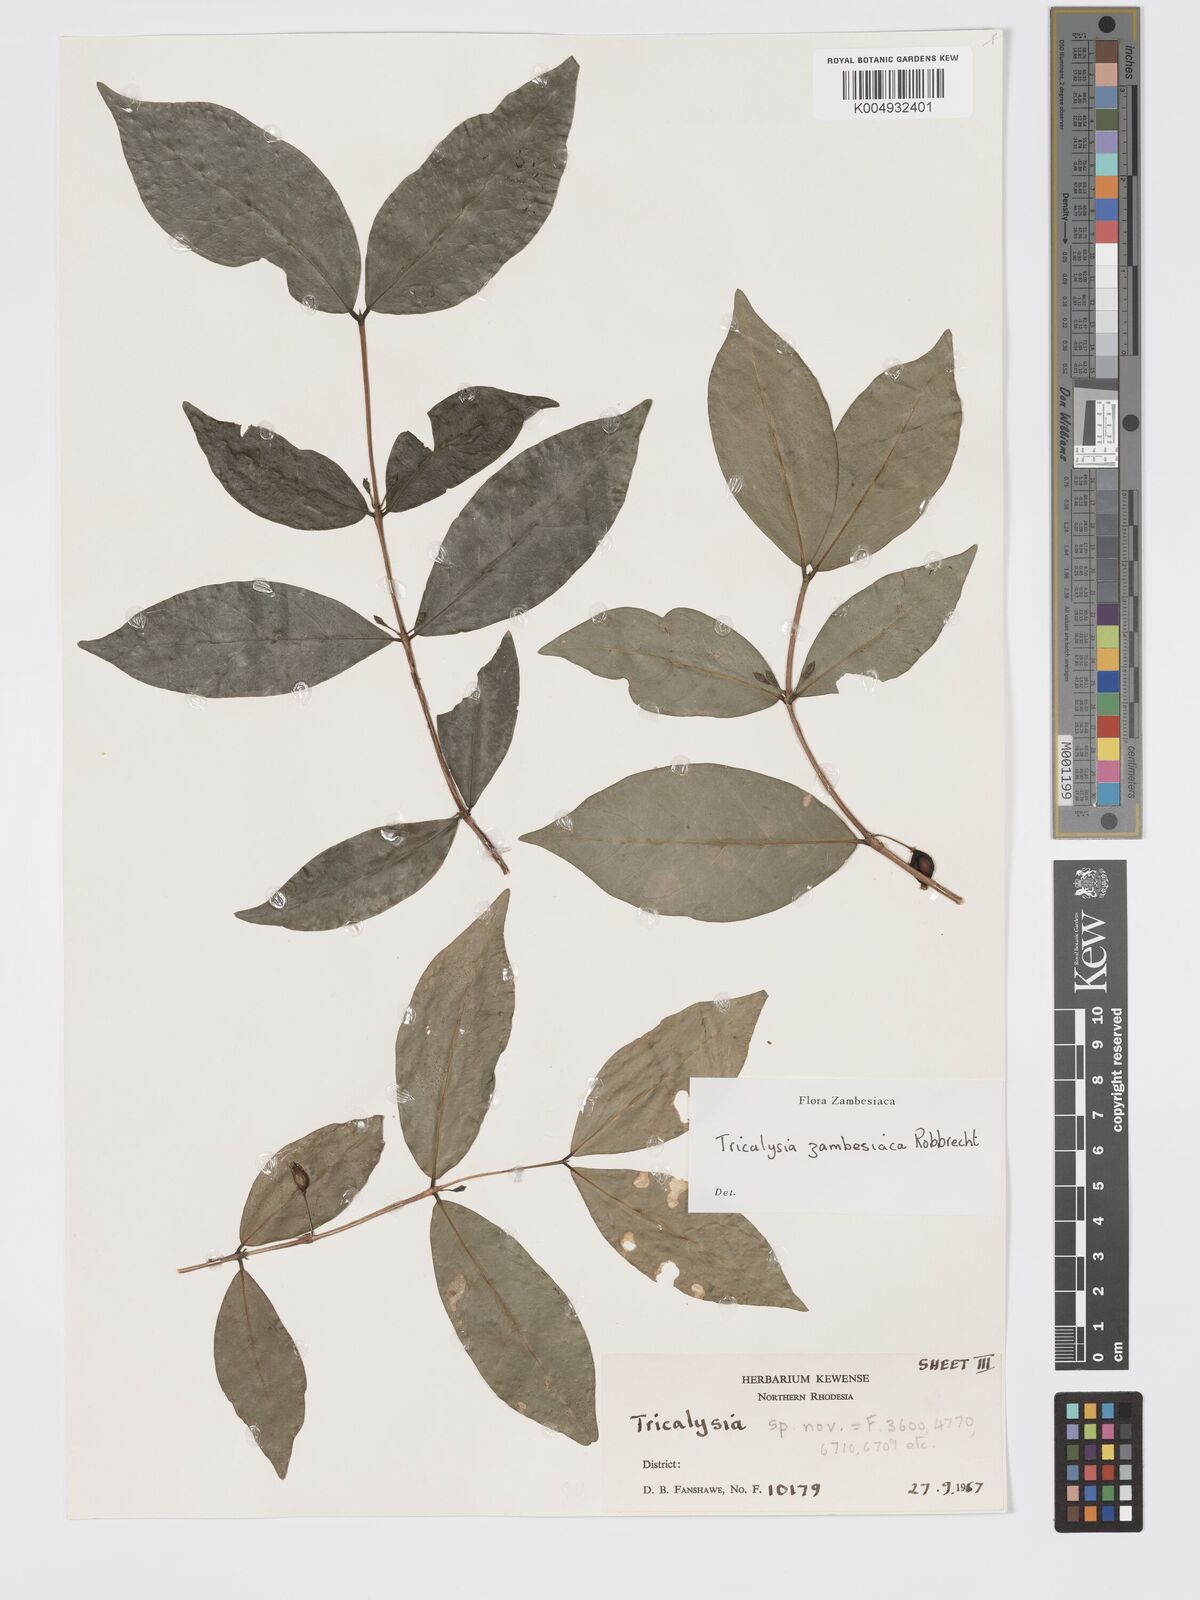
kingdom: Plantae
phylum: Tracheophyta
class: Magnoliopsida
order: Gentianales
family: Rubiaceae
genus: Tricalysia
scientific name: Tricalysia zambesiaca
